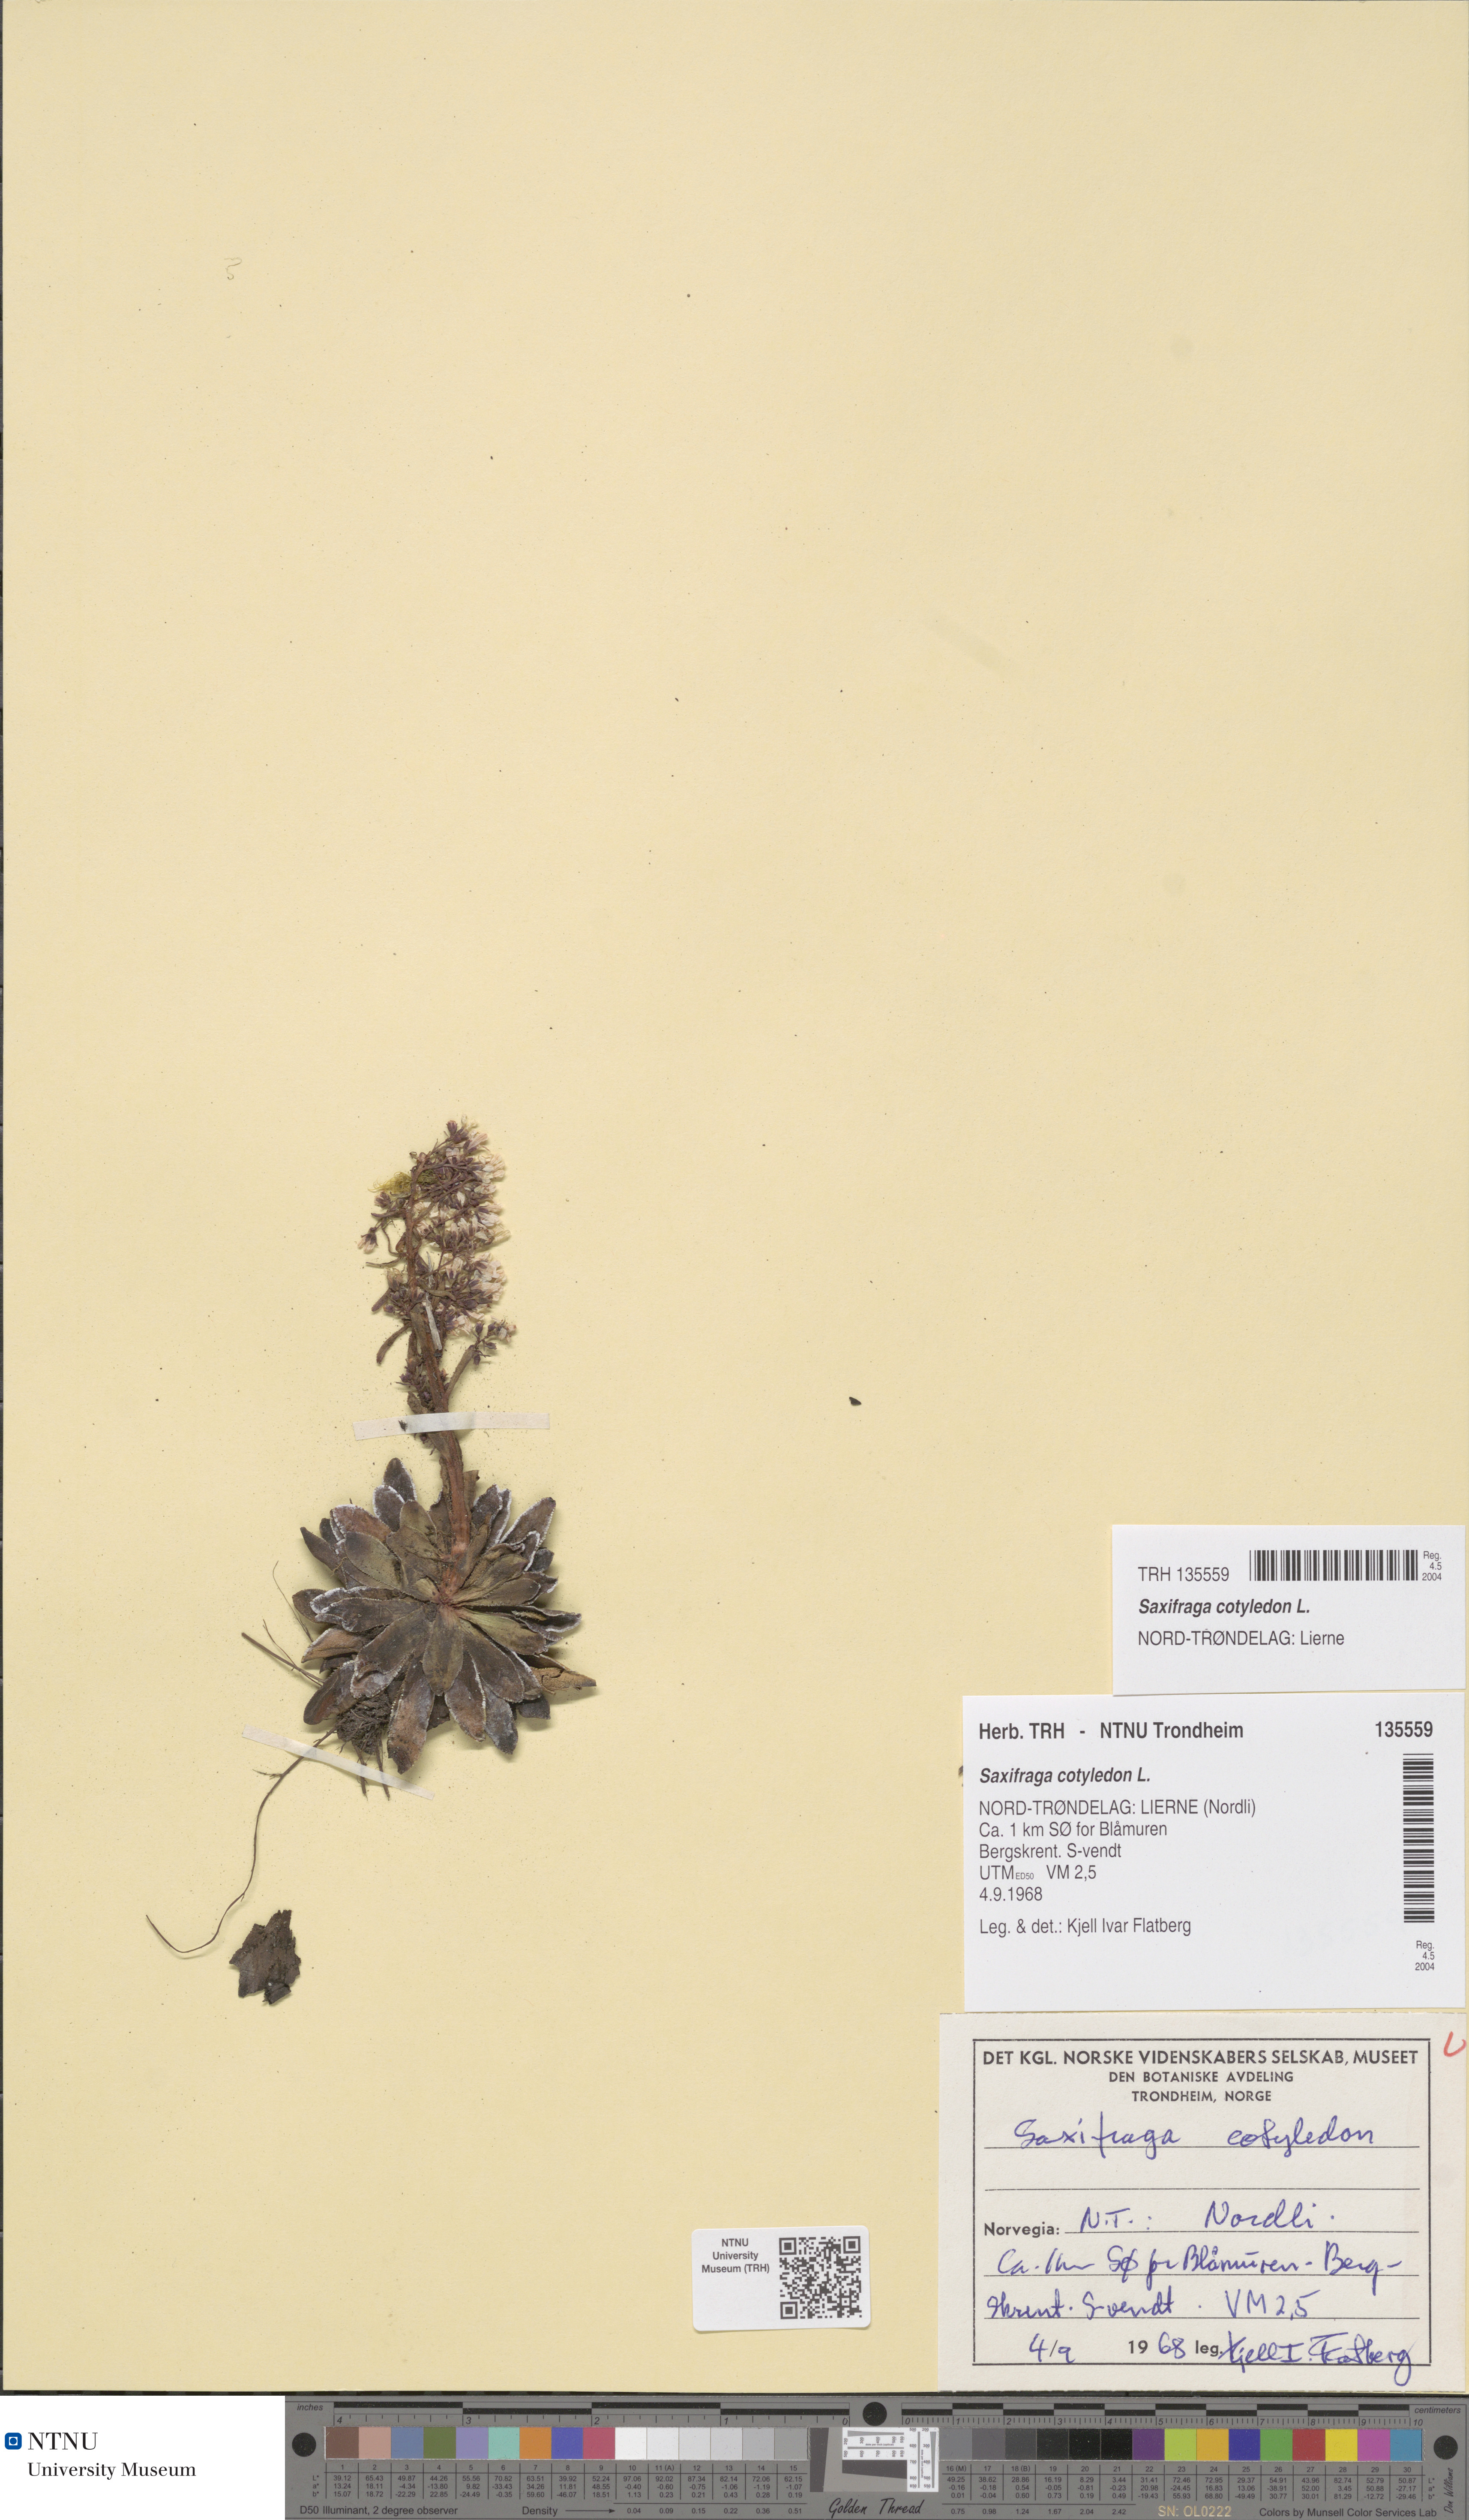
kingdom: Plantae
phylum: Tracheophyta
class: Magnoliopsida
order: Saxifragales
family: Saxifragaceae
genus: Saxifraga
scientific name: Saxifraga cotyledon
